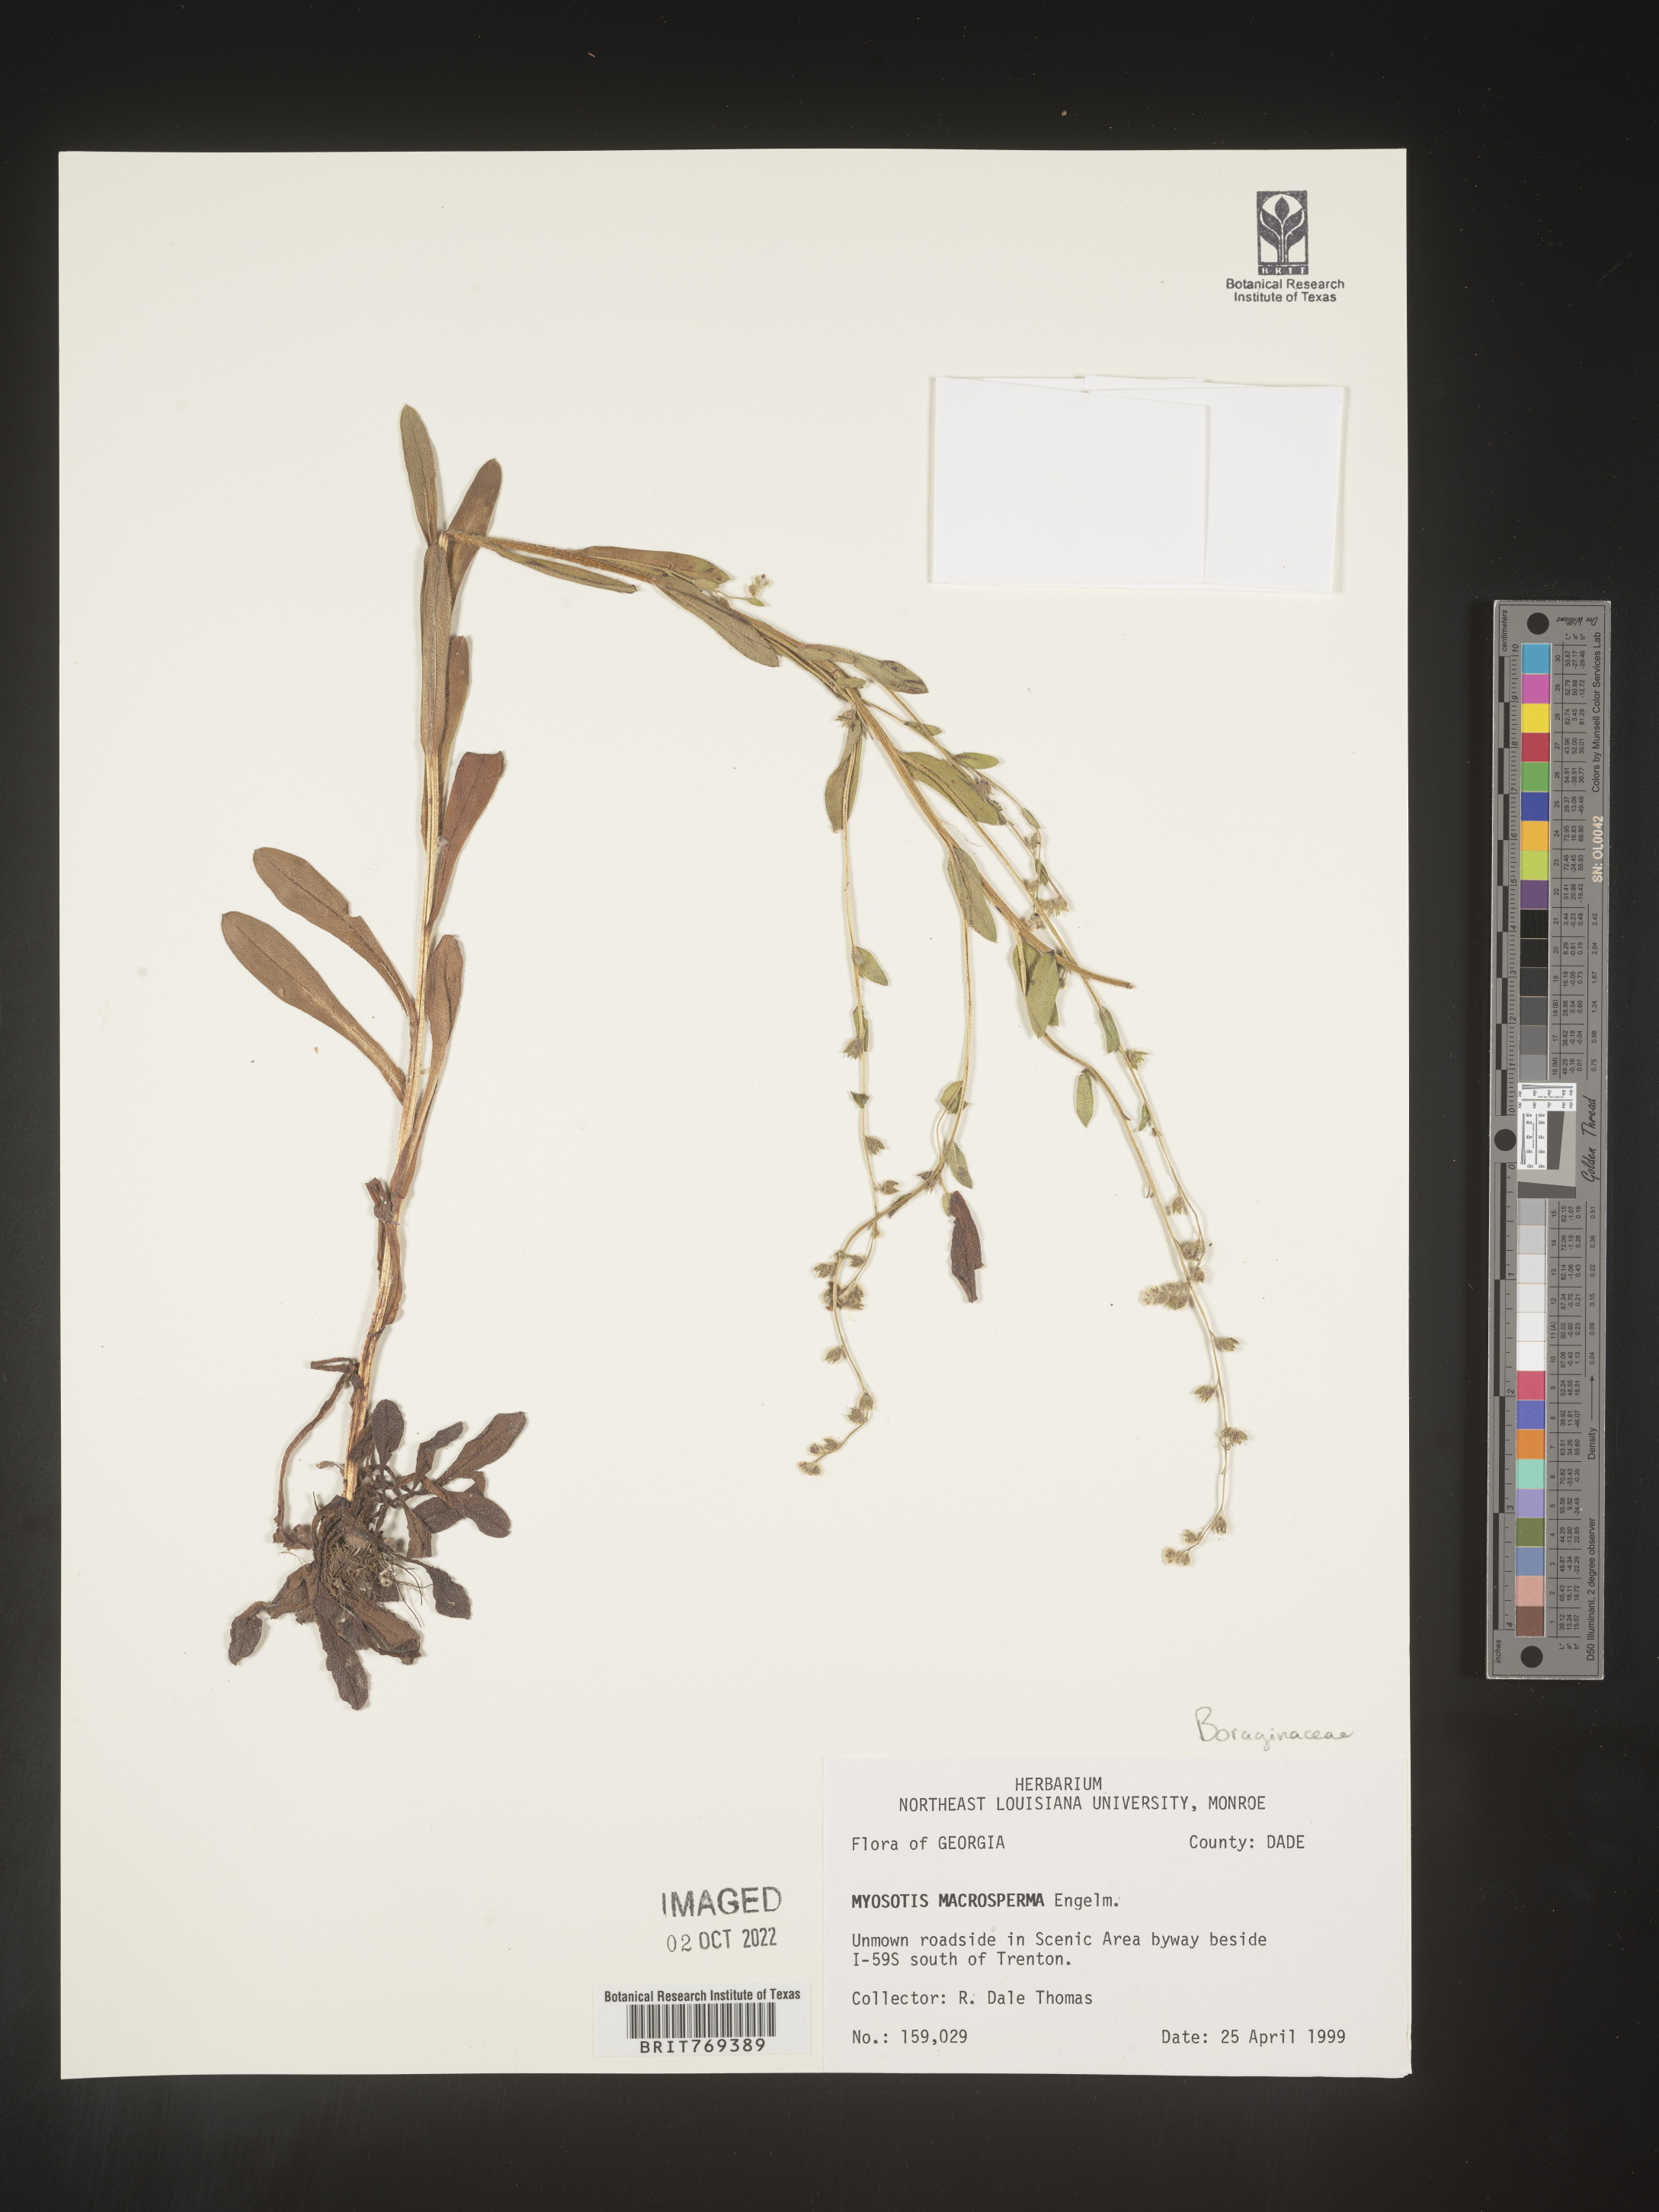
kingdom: Plantae
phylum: Tracheophyta
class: Magnoliopsida
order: Boraginales
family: Boraginaceae
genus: Myosotis
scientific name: Myosotis macrosperma
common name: Large-seed forget-me-not
